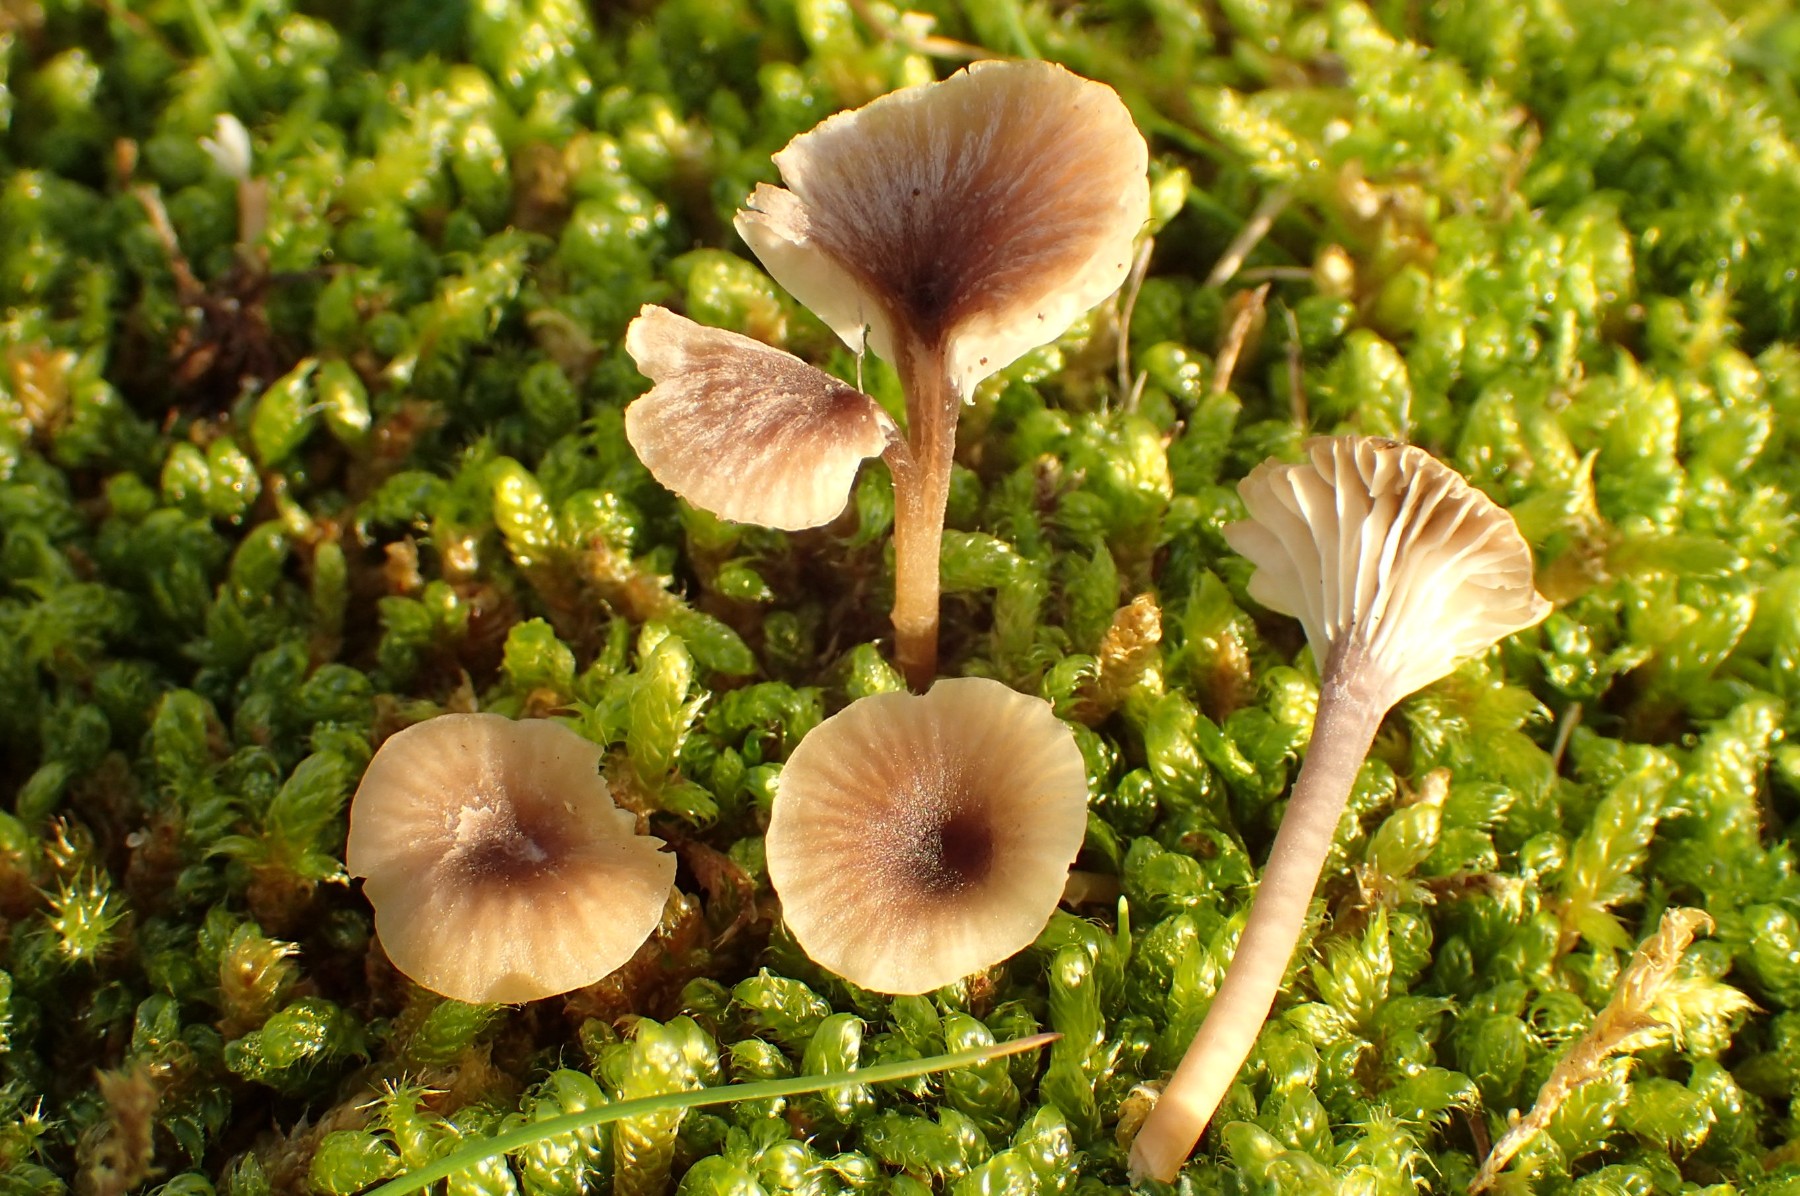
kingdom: Fungi
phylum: Basidiomycota
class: Agaricomycetes
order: Hymenochaetales
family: Rickenellaceae
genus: Rickenella
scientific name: Rickenella swartzii
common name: finstokket mosnavlehat
